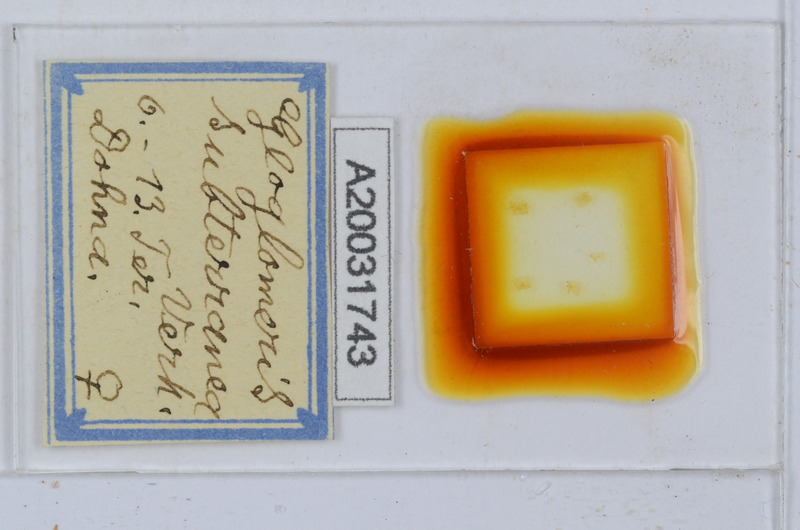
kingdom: Animalia
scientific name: Animalia
